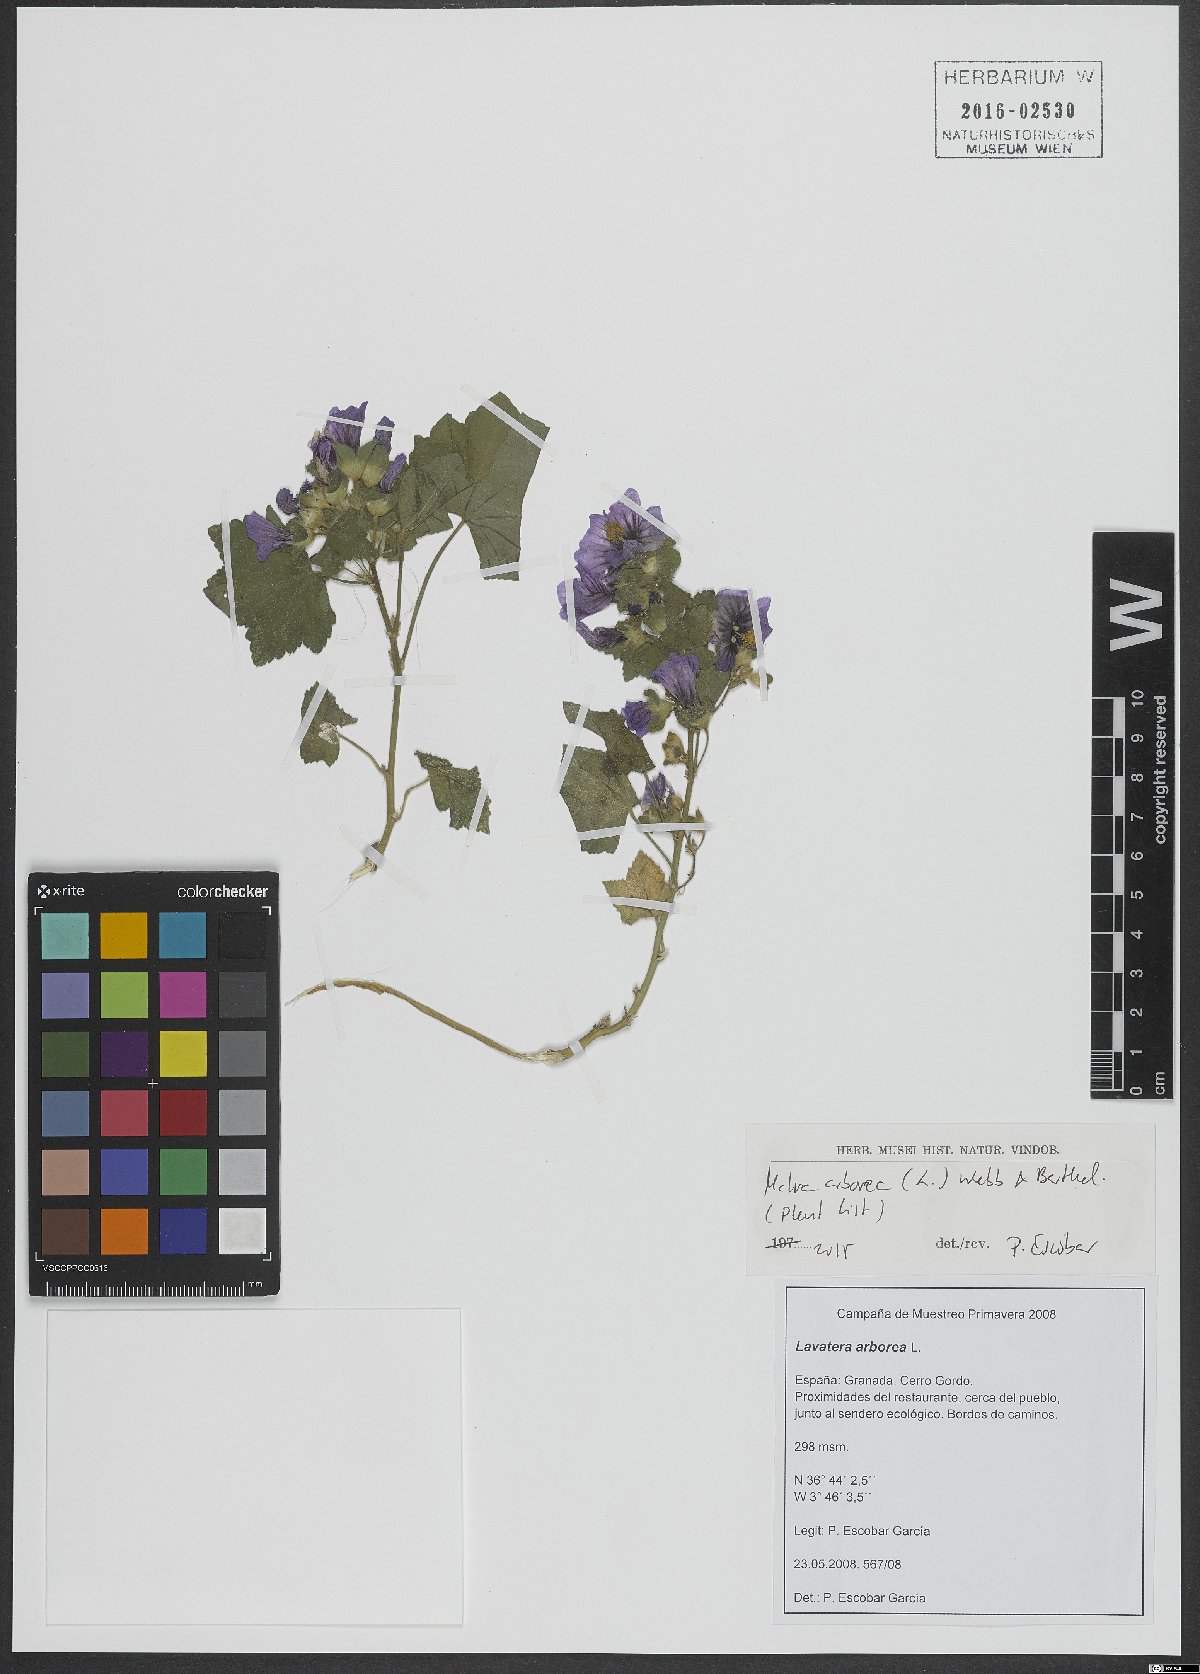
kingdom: Plantae
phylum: Tracheophyta
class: Magnoliopsida
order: Malvales
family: Malvaceae
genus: Malva
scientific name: Malva arborea
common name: Tree mallow
